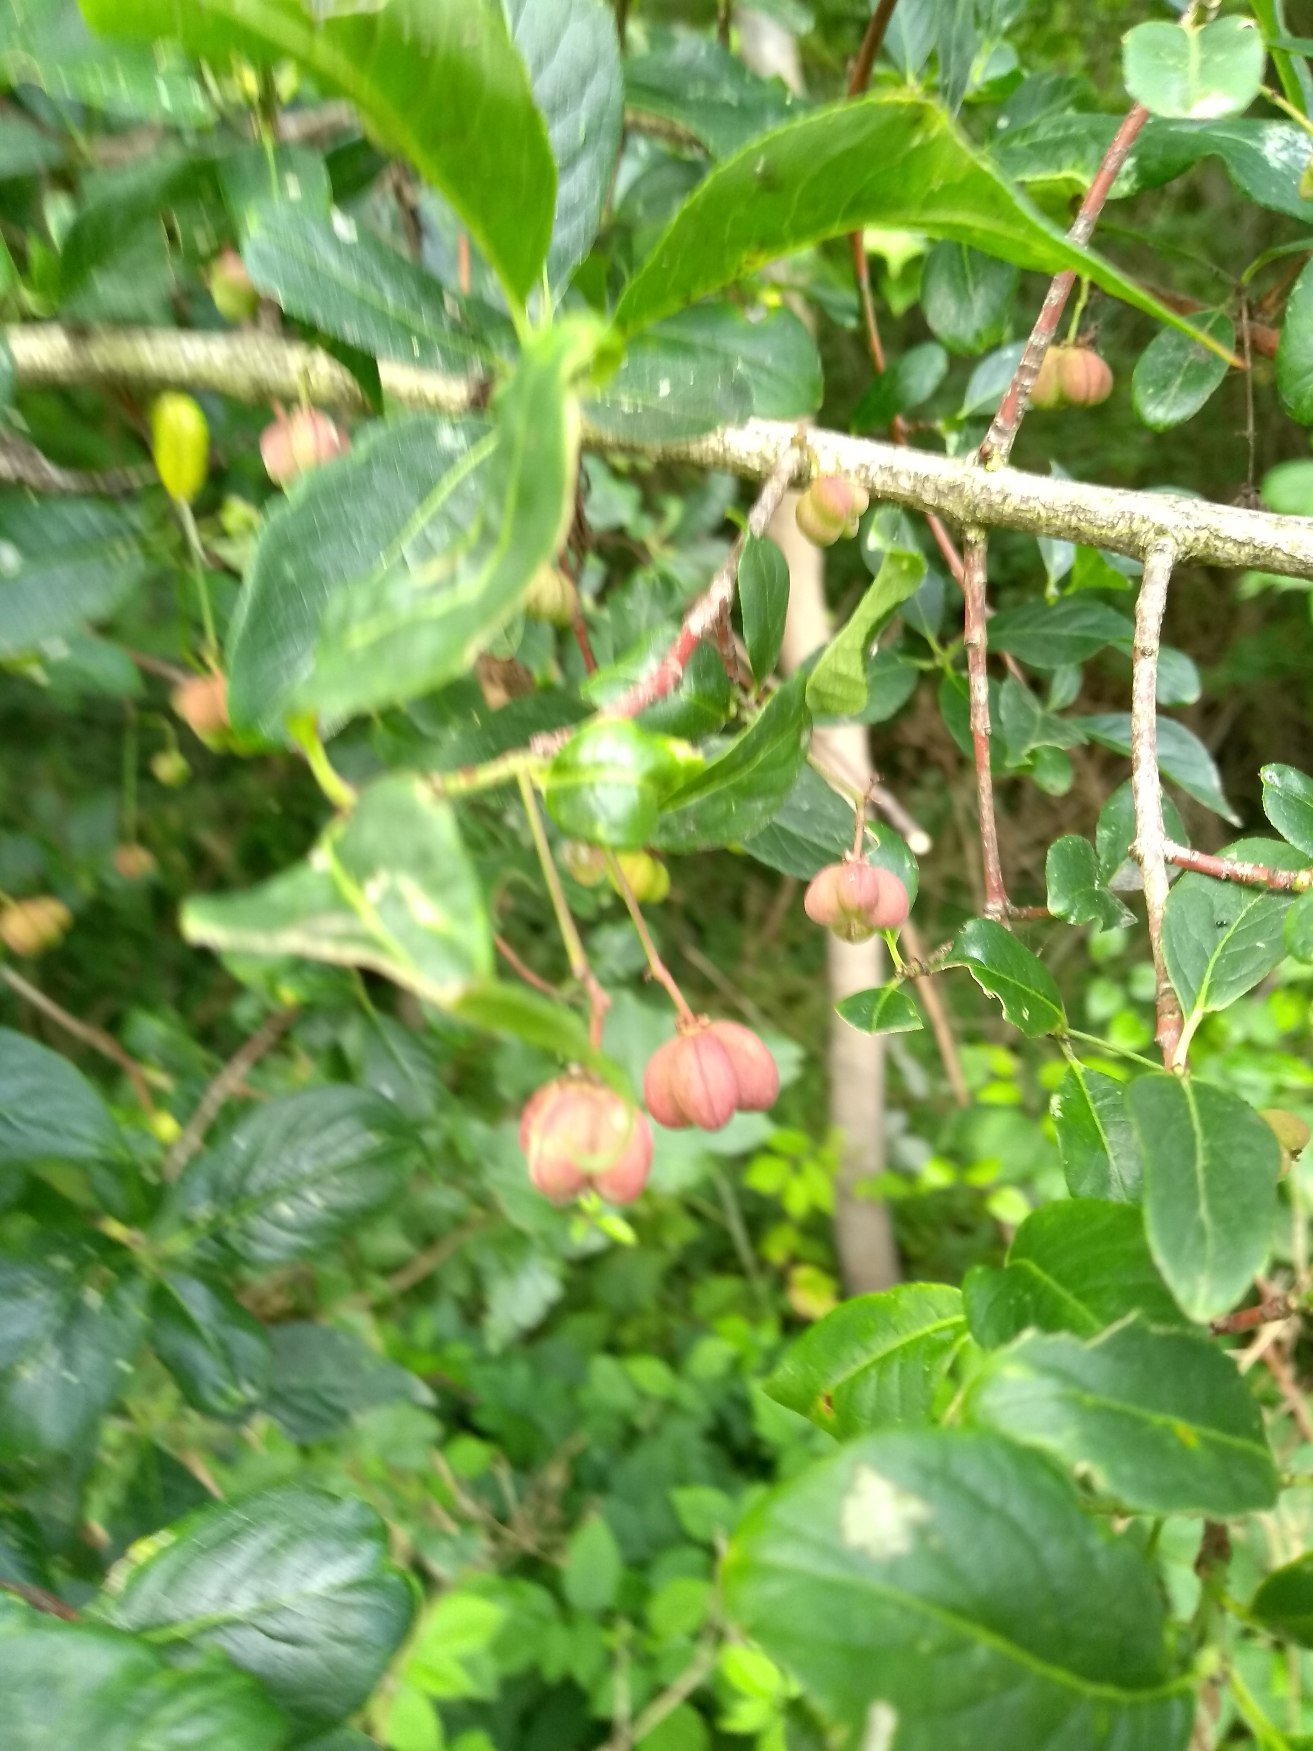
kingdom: Plantae
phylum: Tracheophyta
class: Magnoliopsida
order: Celastrales
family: Celastraceae
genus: Euonymus
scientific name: Euonymus europaeus
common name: Benved
